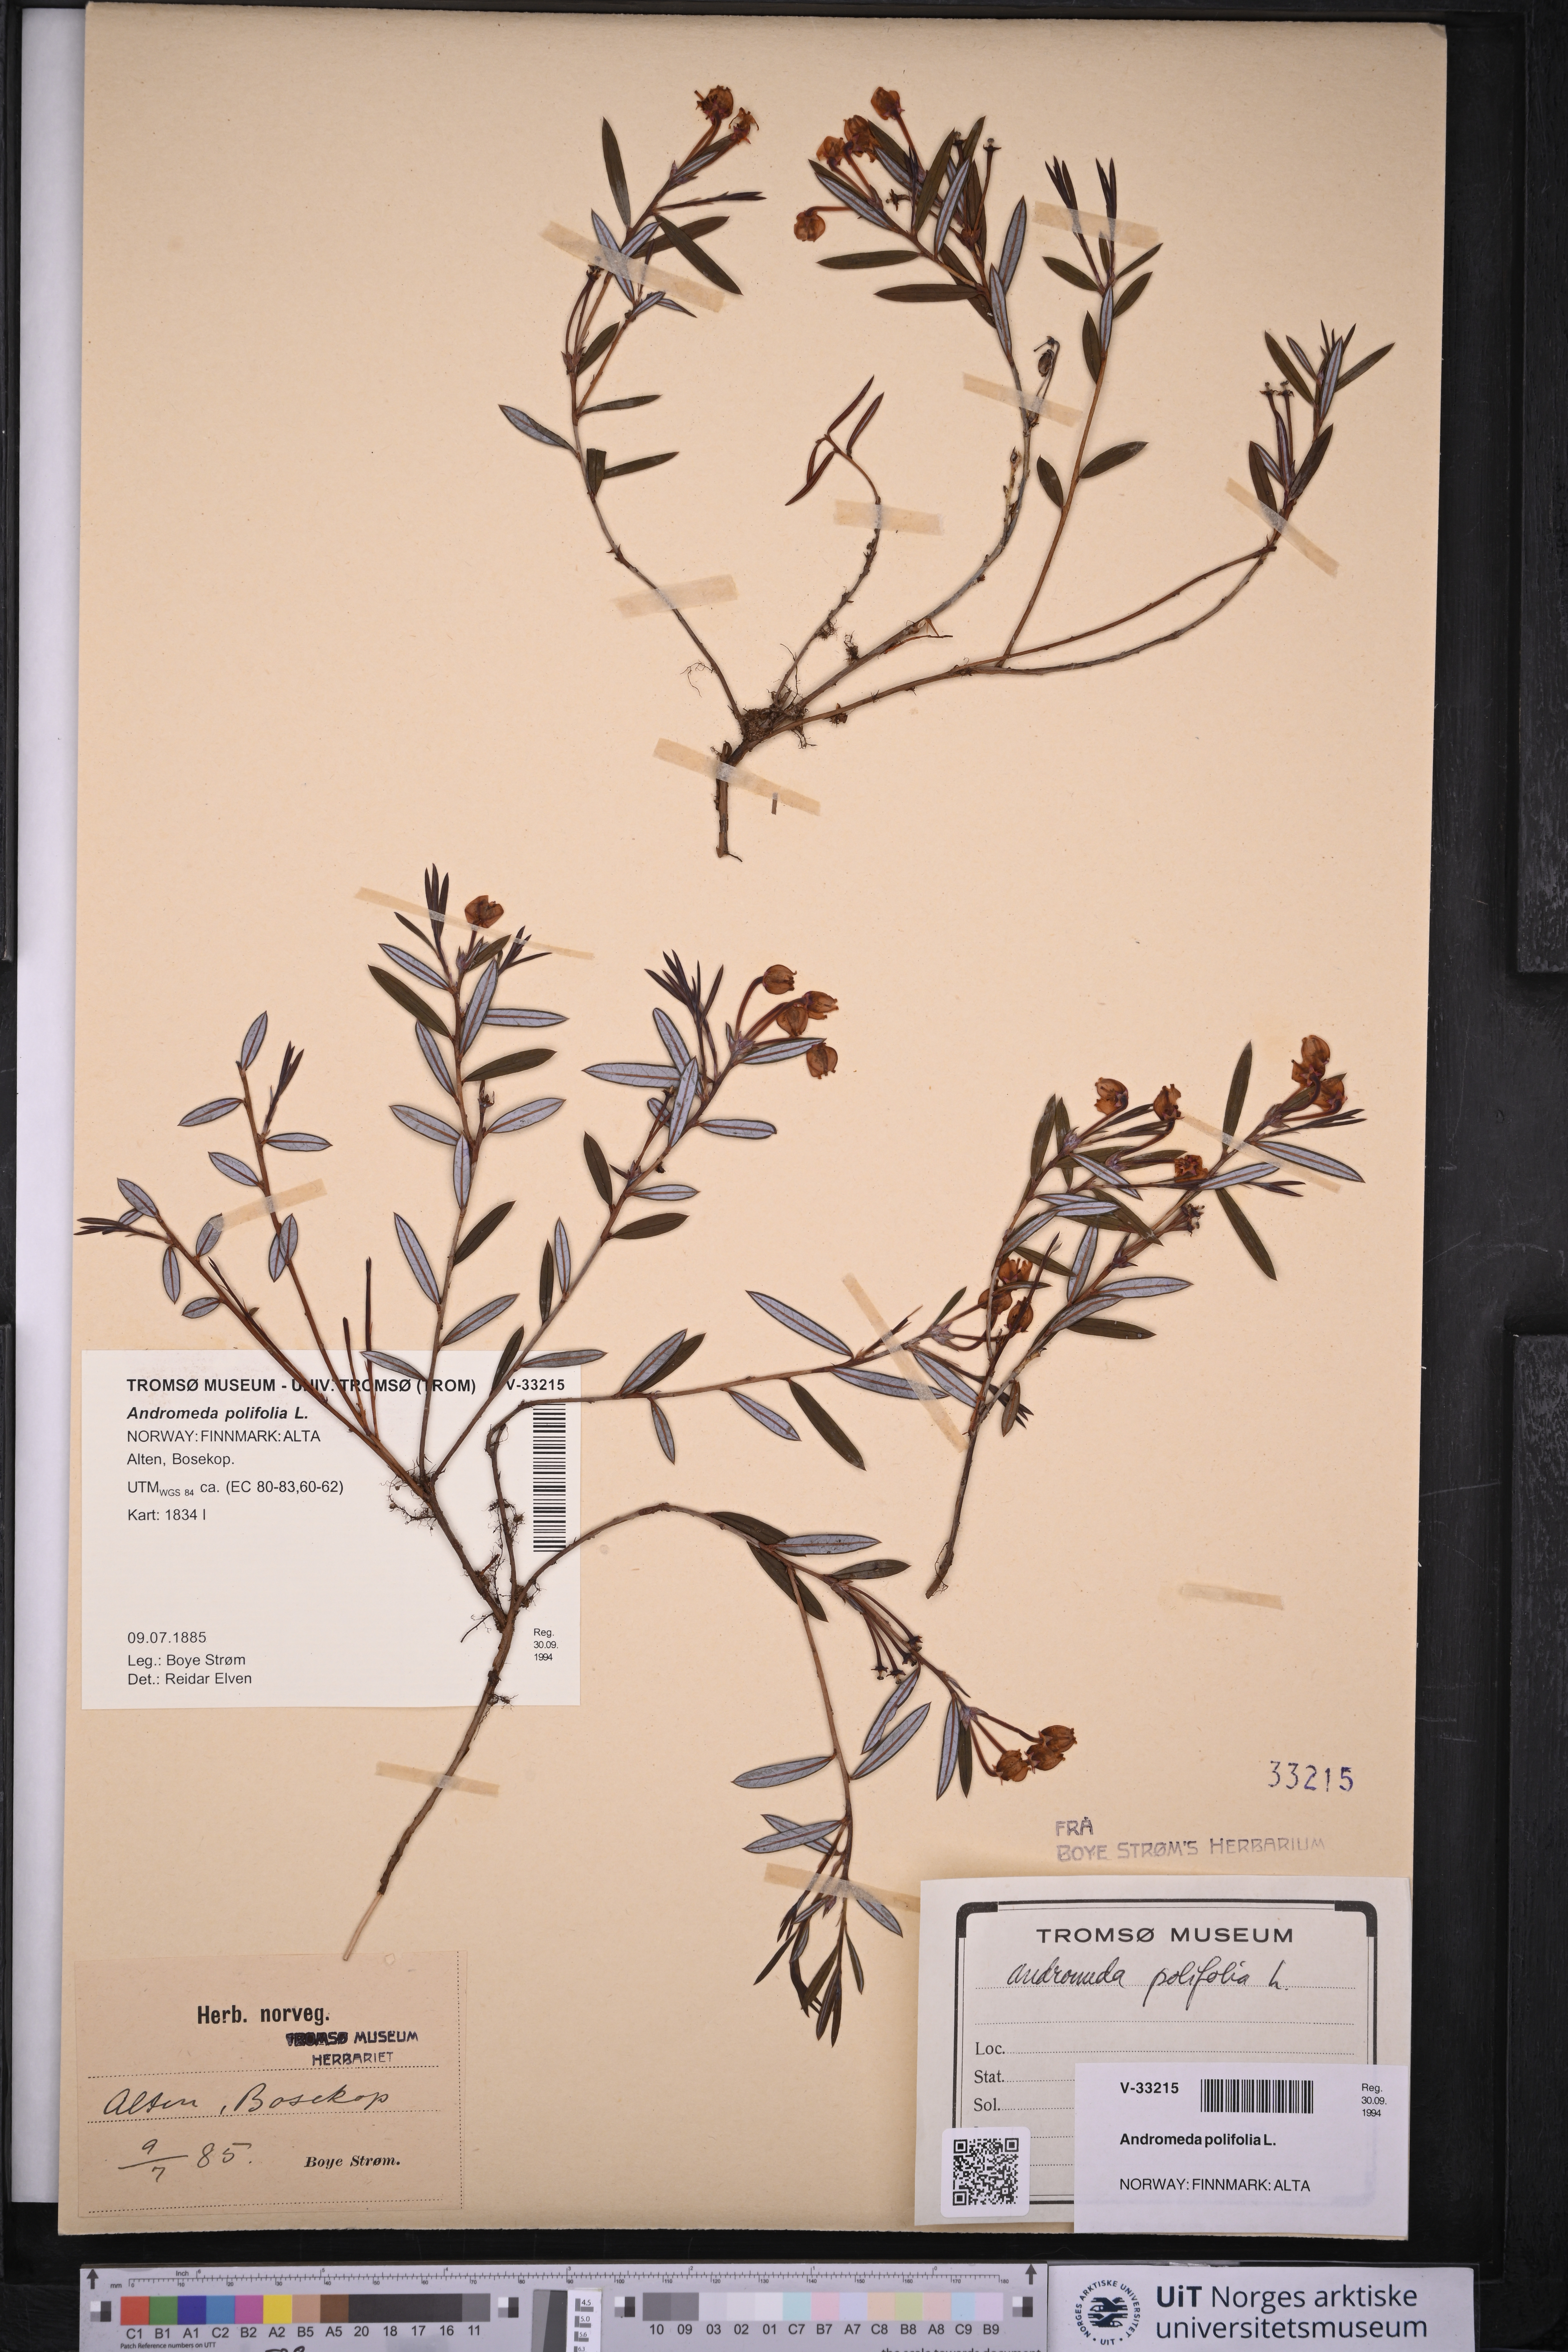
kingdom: Plantae
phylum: Tracheophyta
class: Magnoliopsida
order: Ericales
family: Ericaceae
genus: Andromeda
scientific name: Andromeda polifolia
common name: Bog-rosemary
